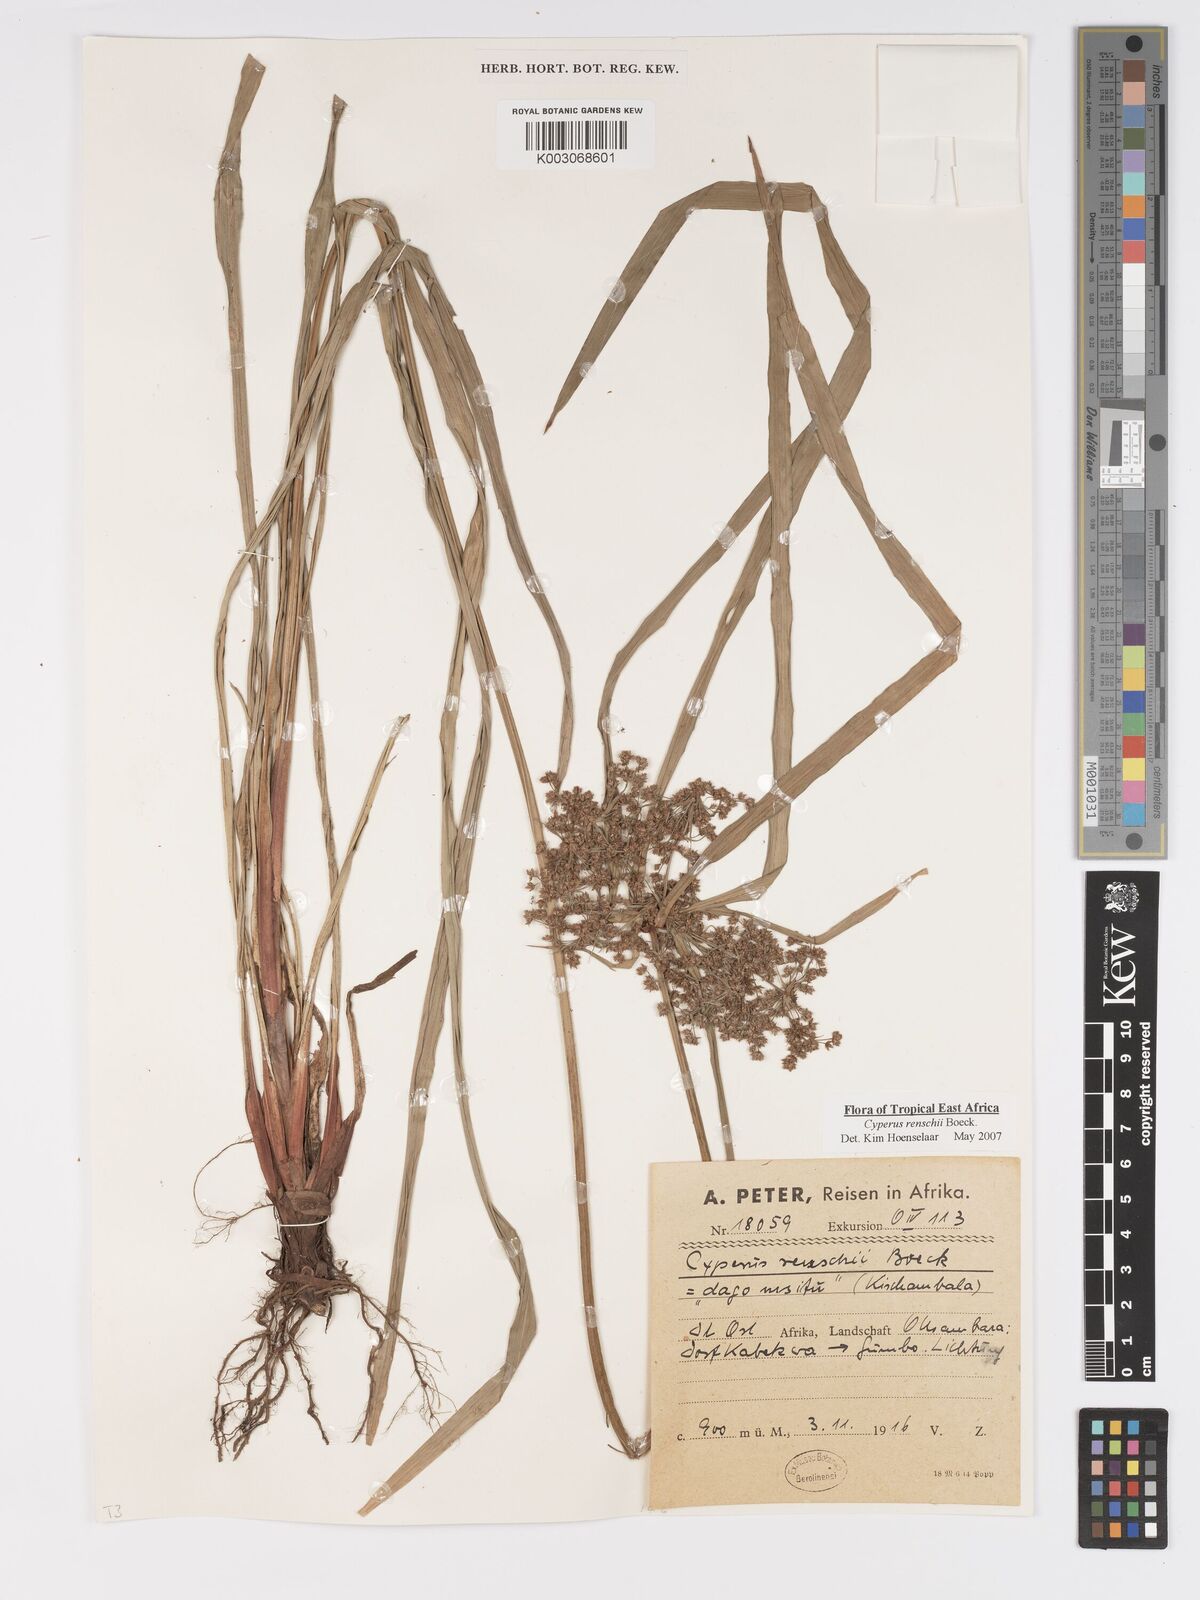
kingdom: Plantae
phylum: Tracheophyta
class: Liliopsida
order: Poales
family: Cyperaceae
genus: Cyperus
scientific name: Cyperus renschii
